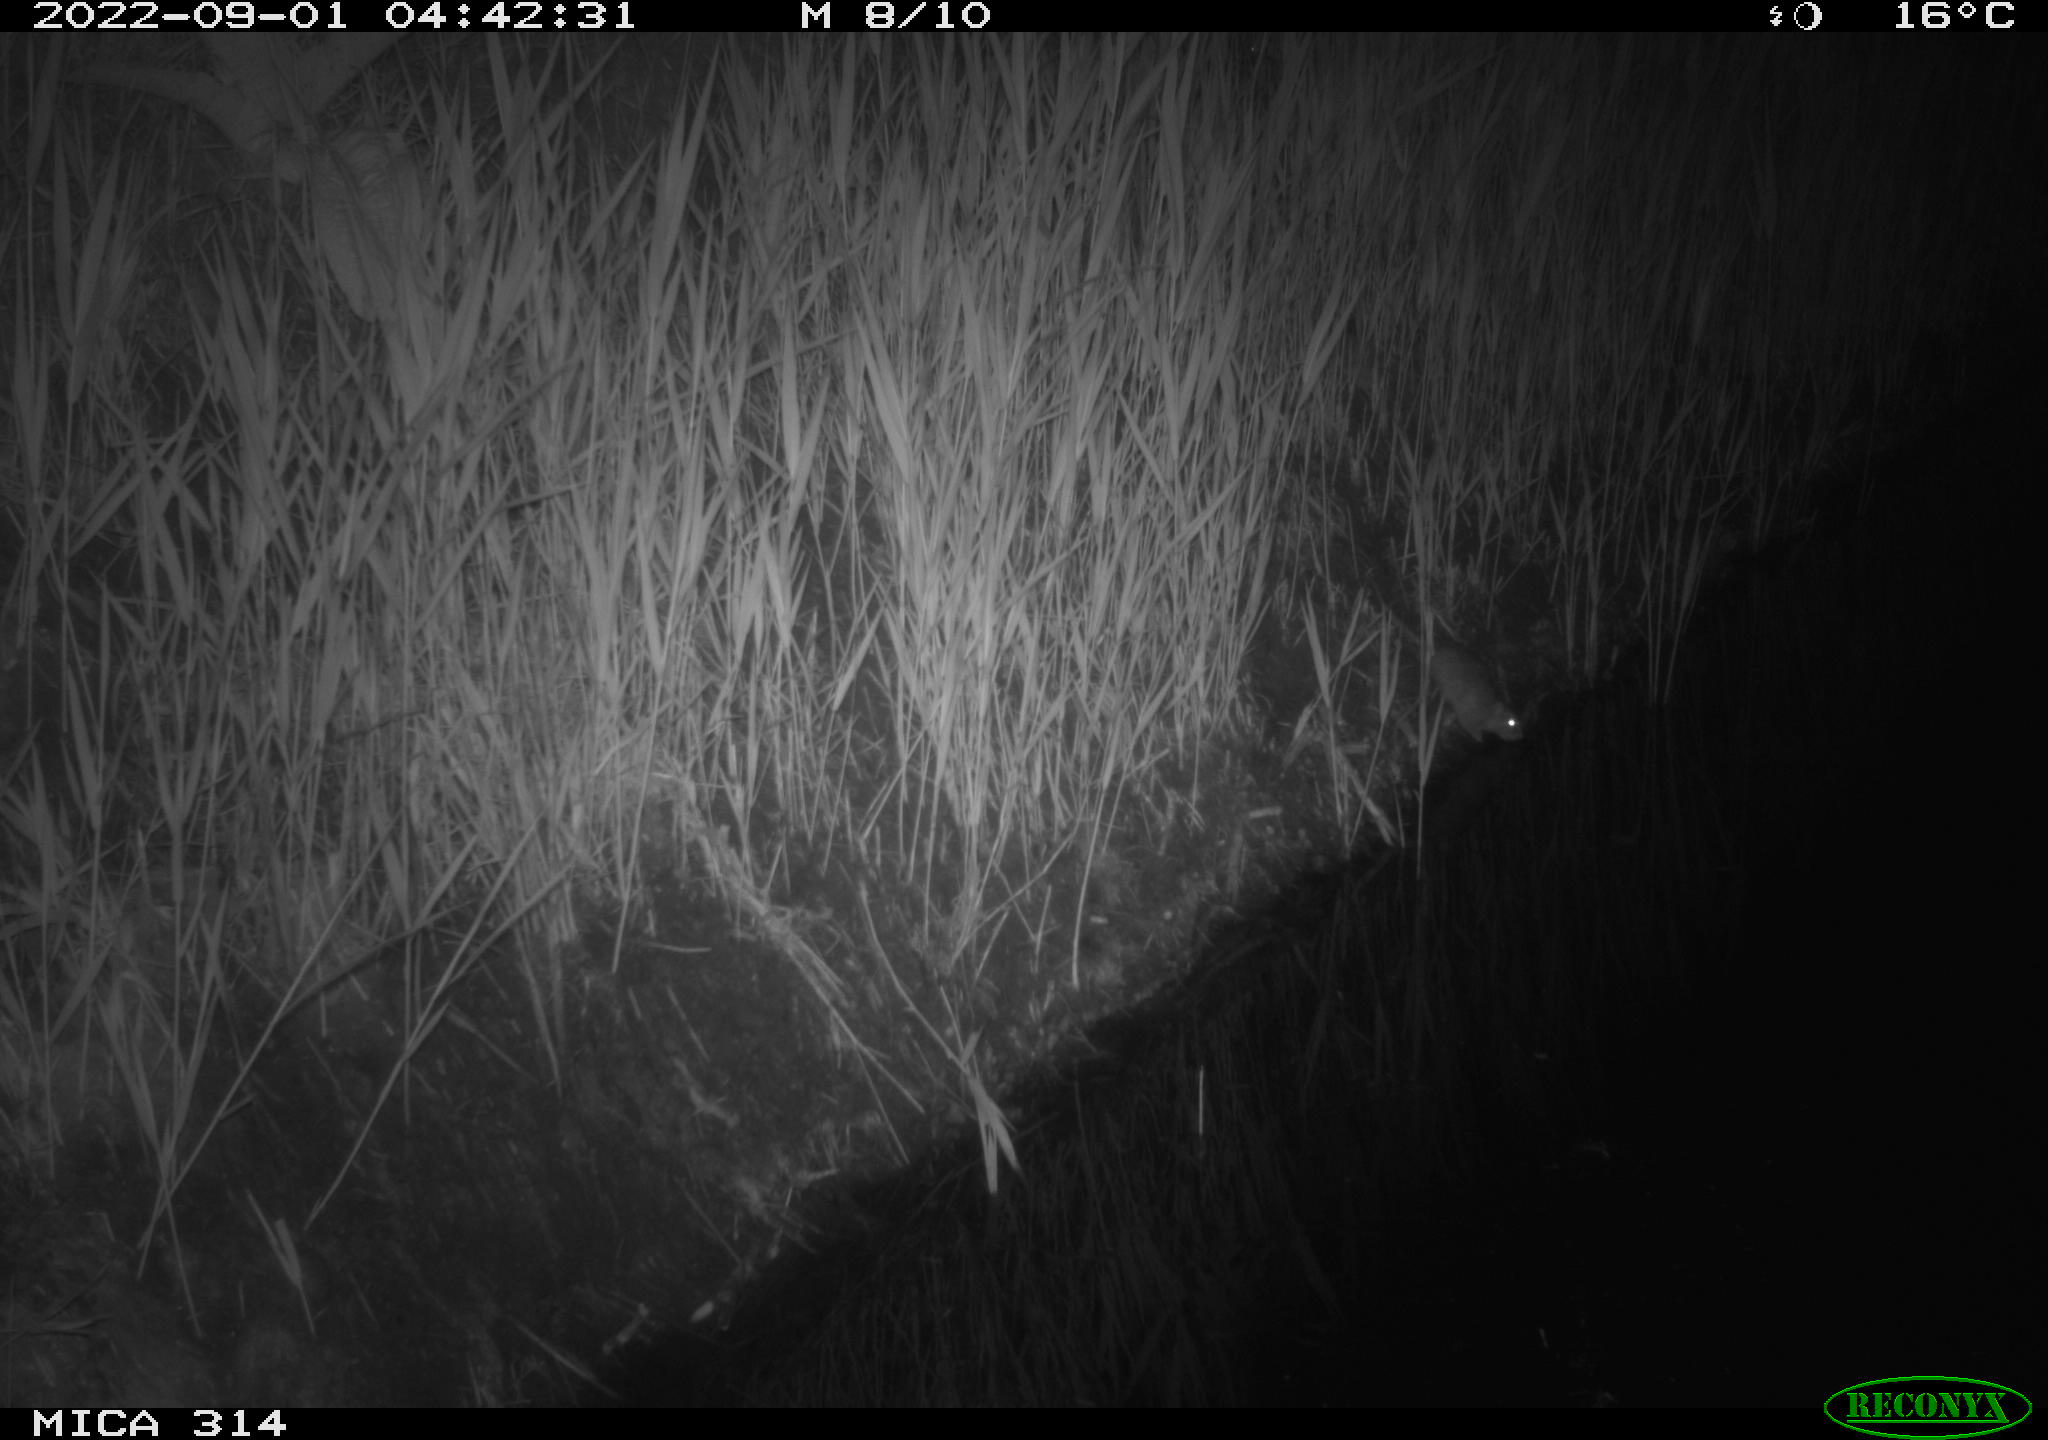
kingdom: Animalia
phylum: Chordata
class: Mammalia
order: Rodentia
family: Muridae
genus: Rattus
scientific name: Rattus norvegicus
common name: Brown rat
